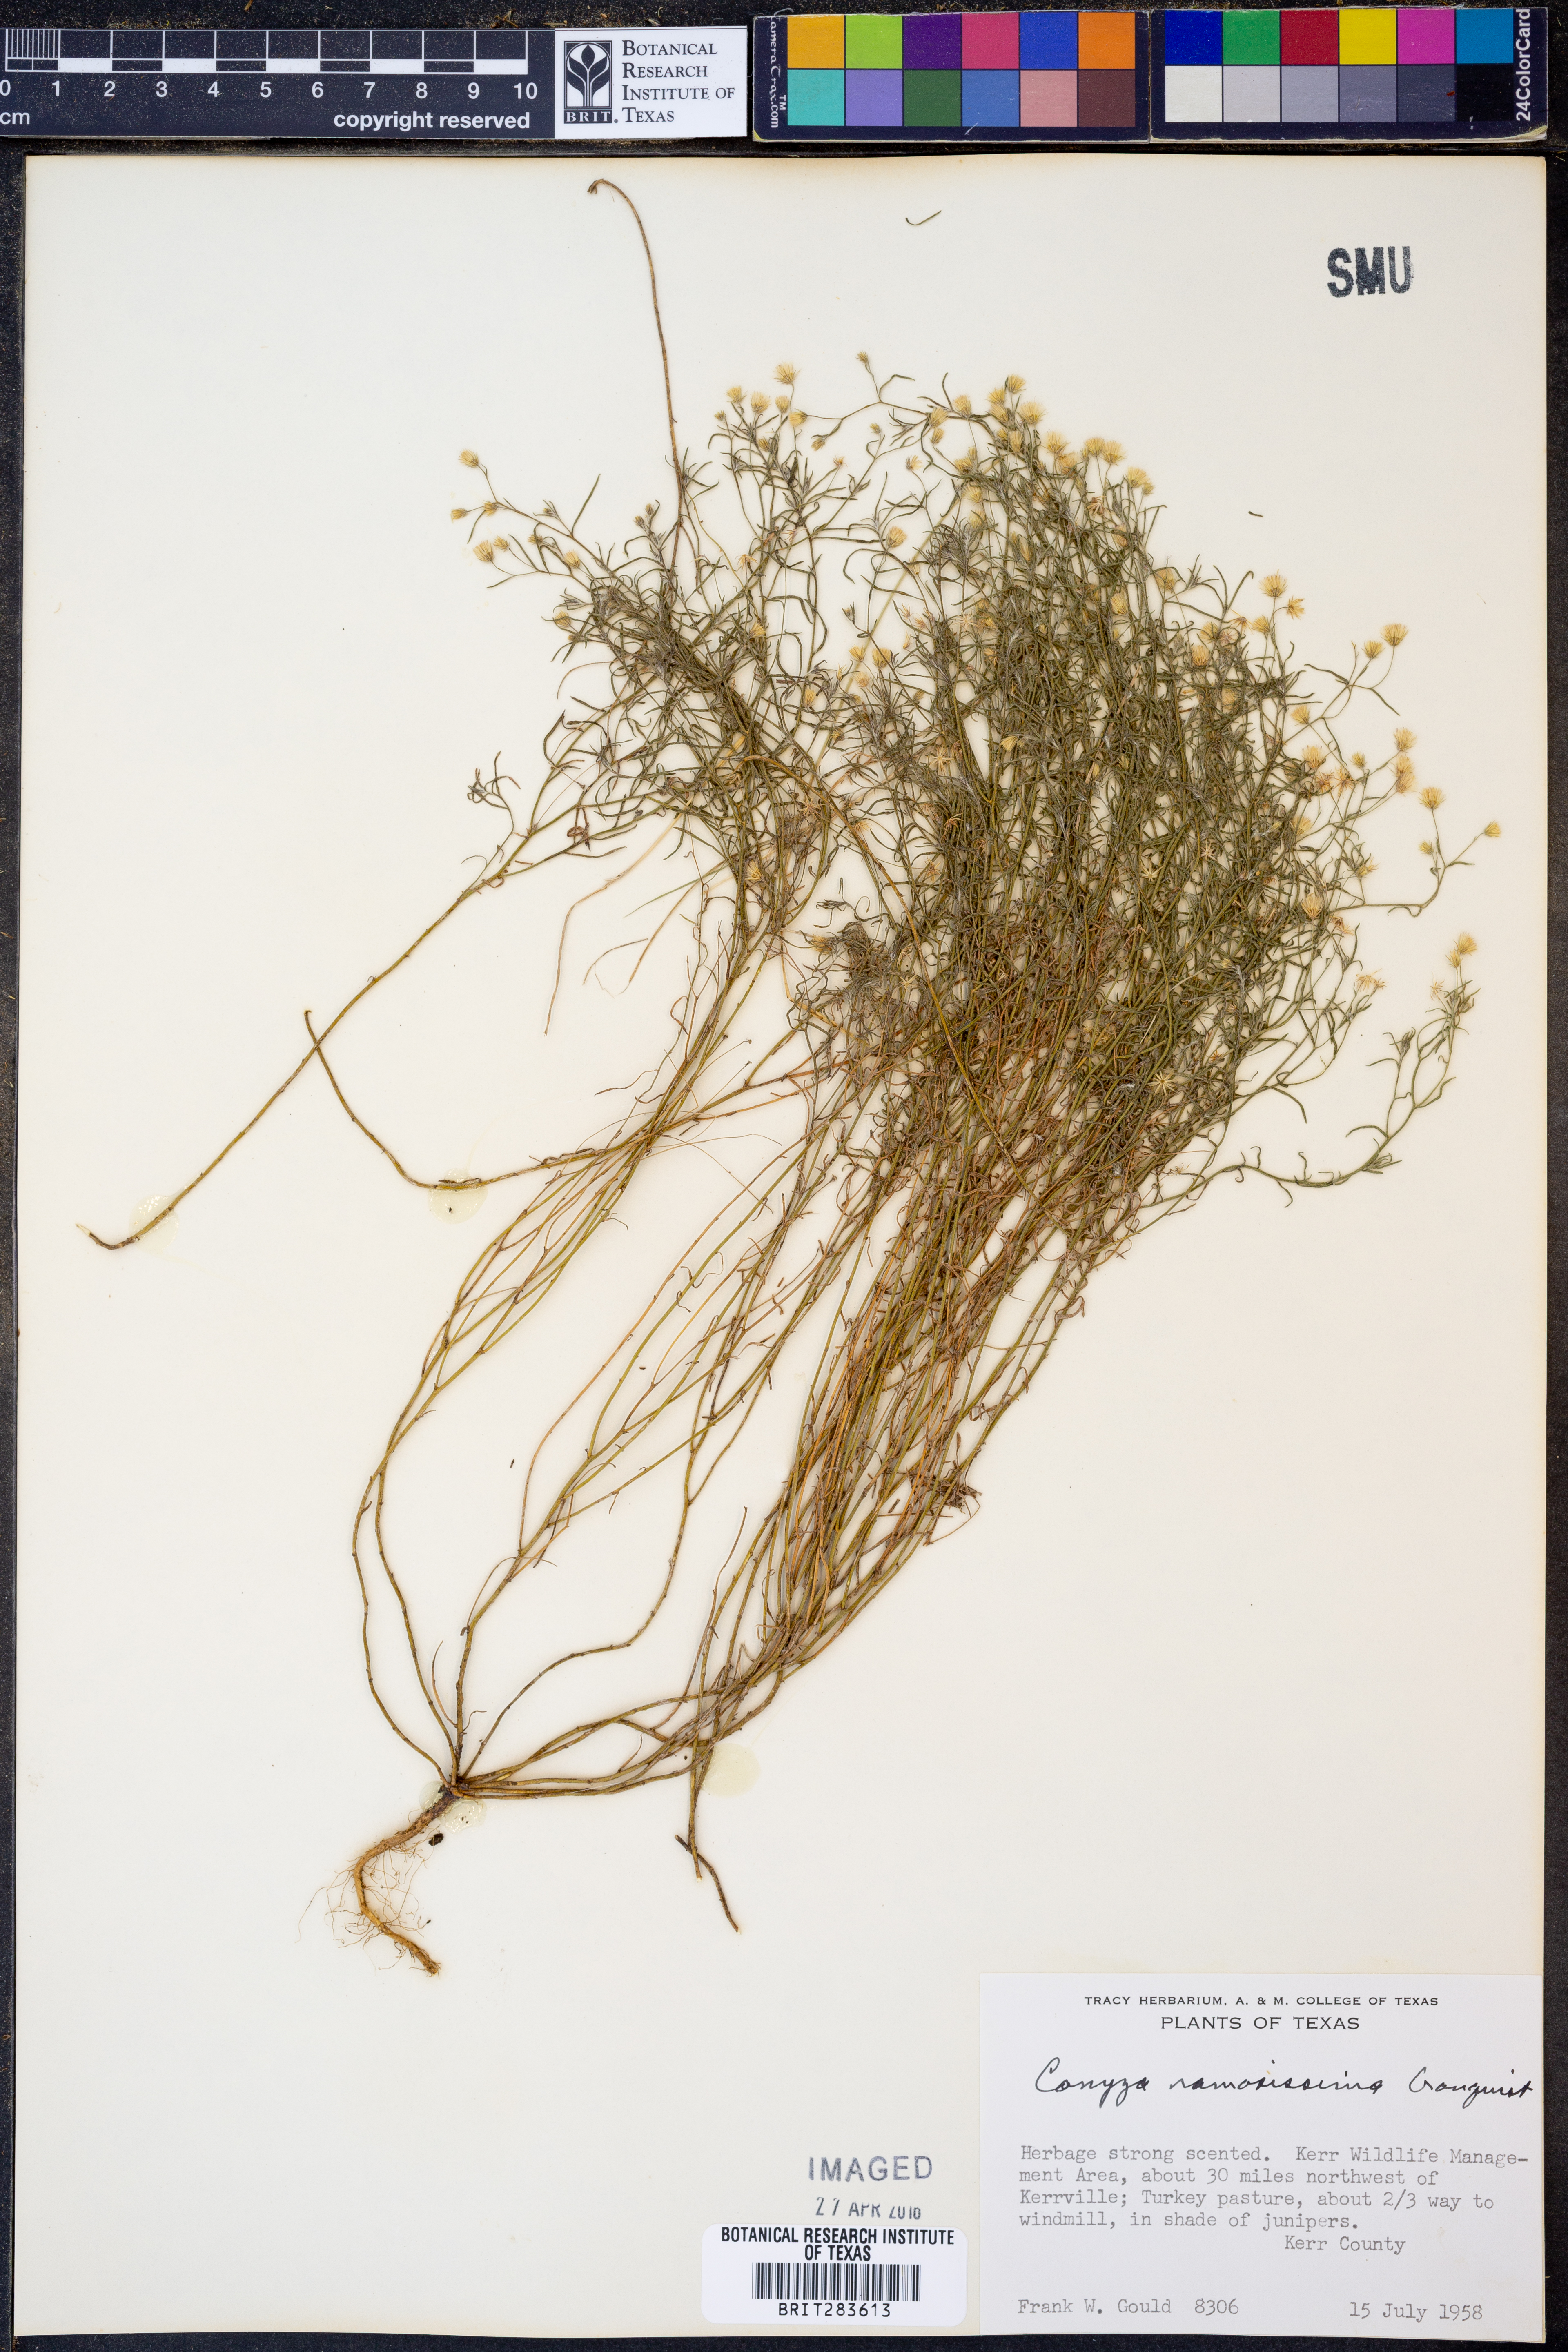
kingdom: Plantae
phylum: Tracheophyta
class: Magnoliopsida
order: Asterales
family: Asteraceae
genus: Erigeron
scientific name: Erigeron divaricatus
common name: Dwarf conyza
